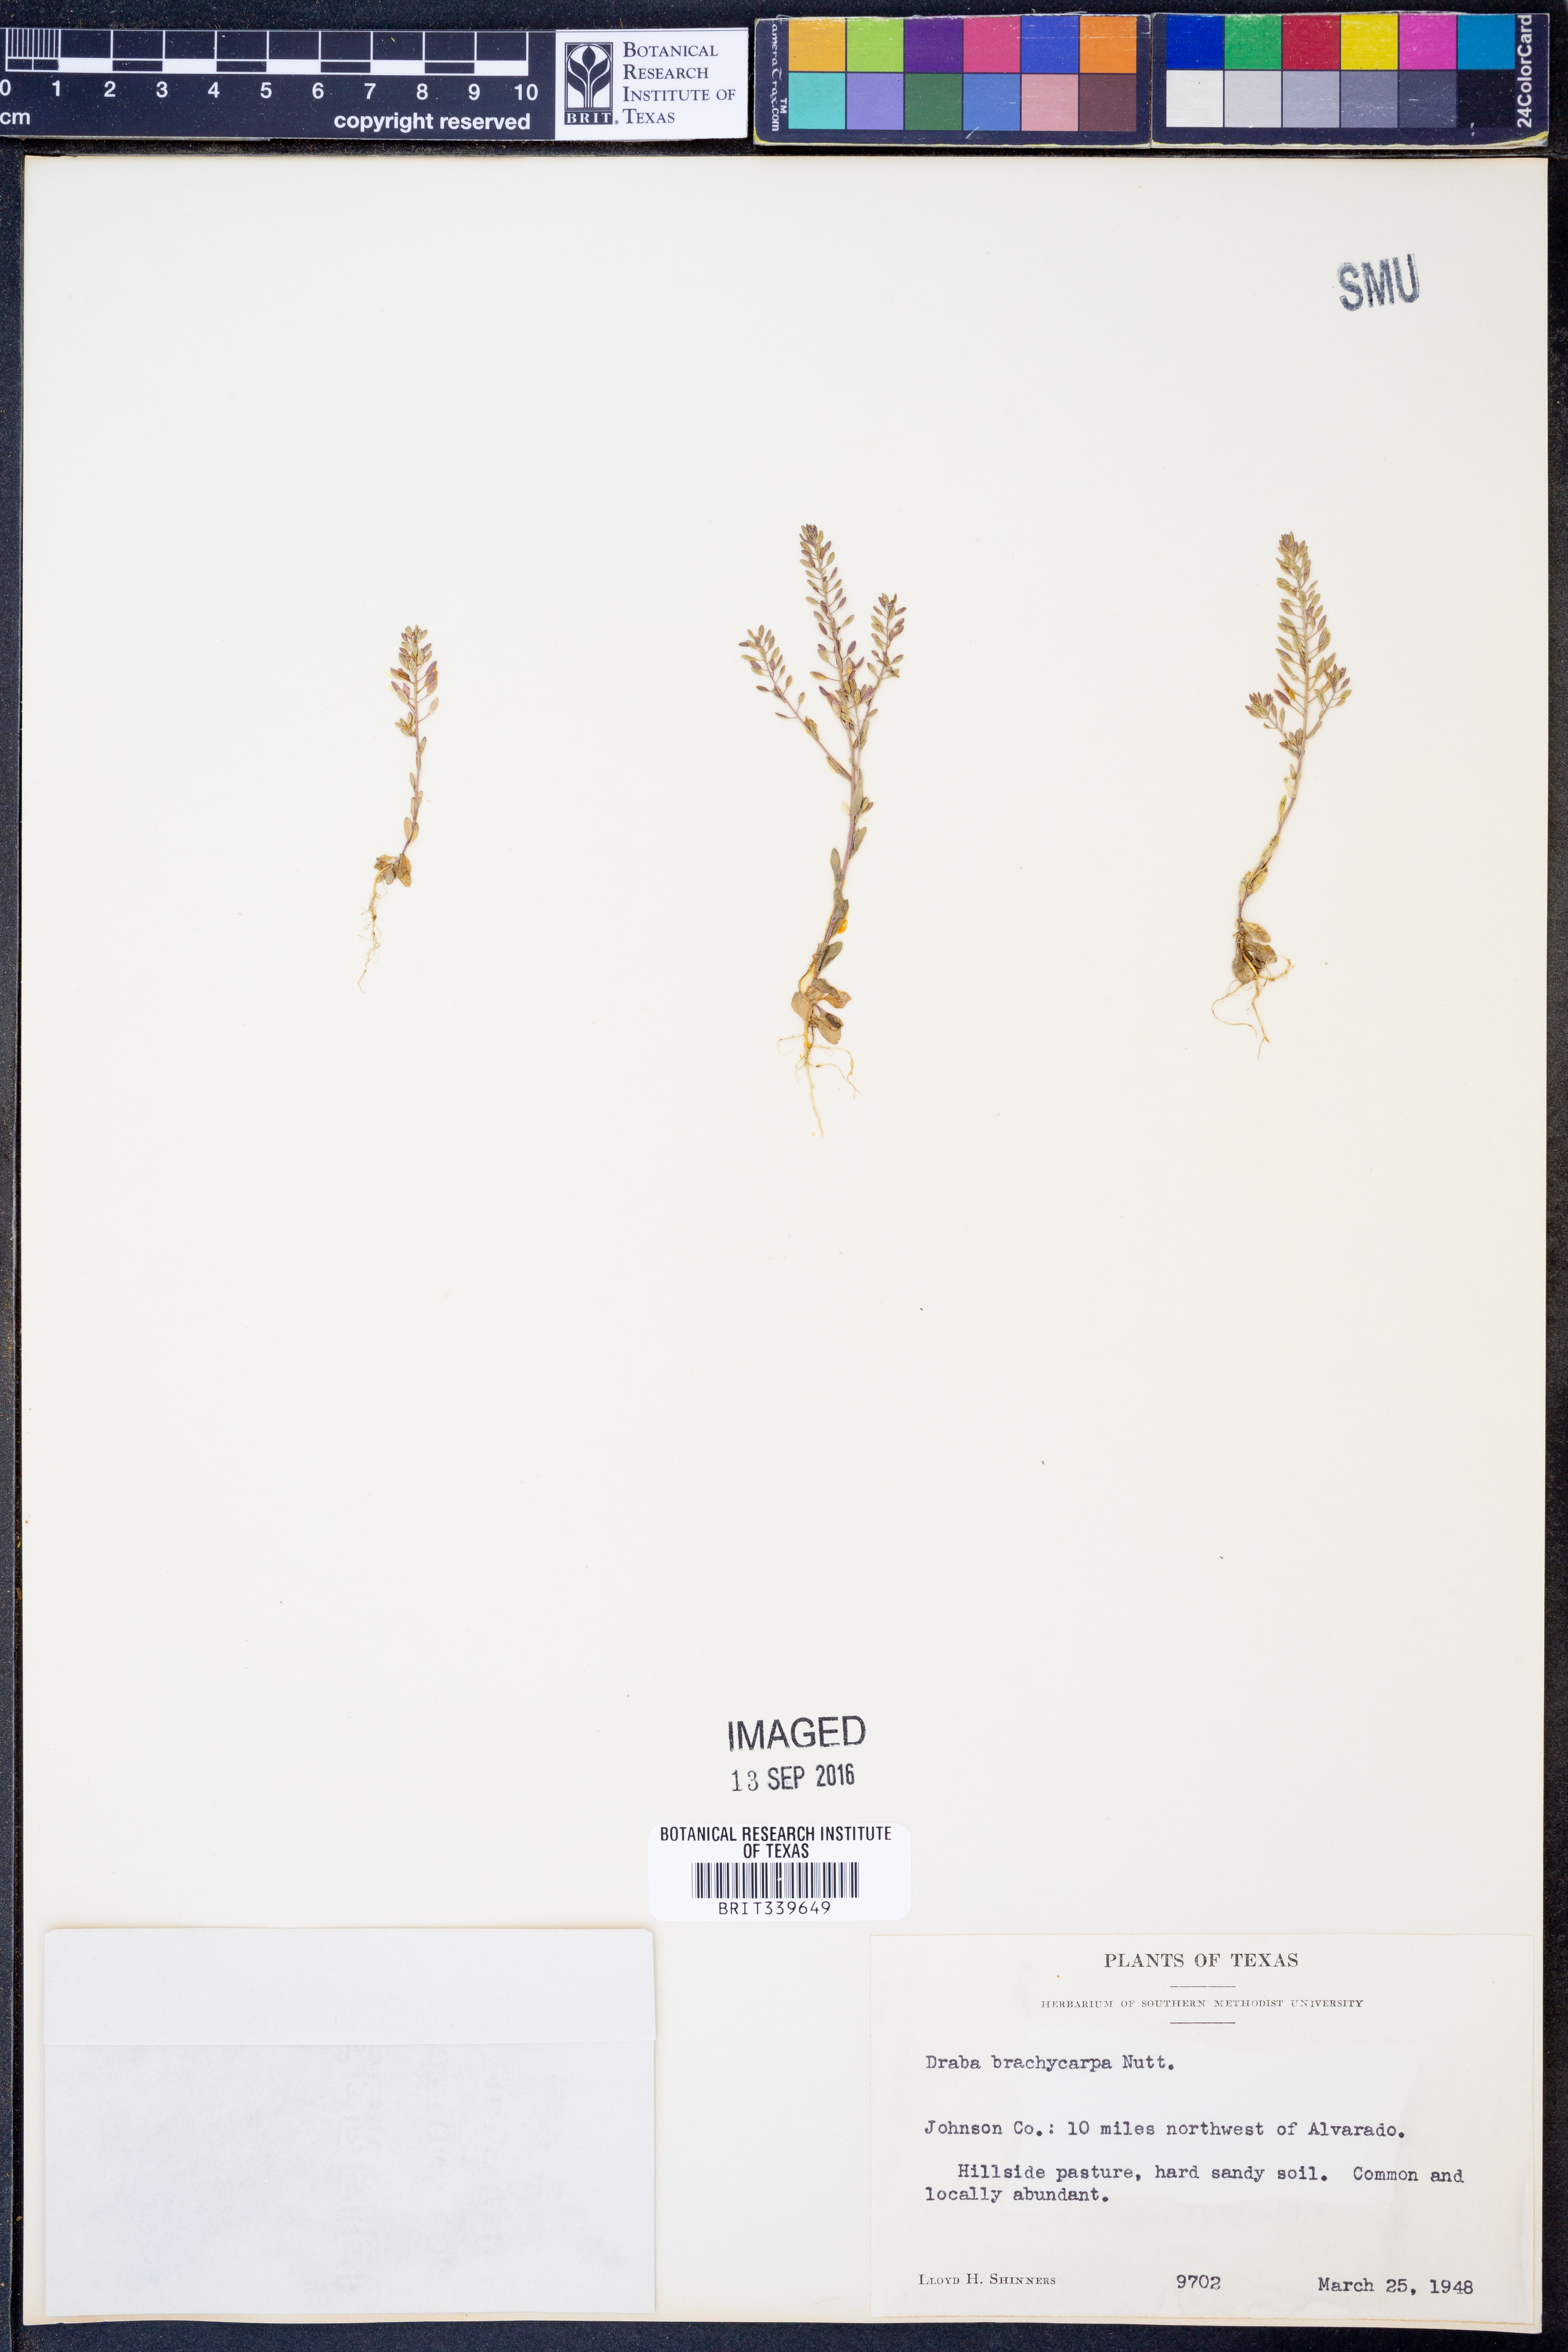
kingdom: Plantae
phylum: Tracheophyta
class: Magnoliopsida
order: Brassicales
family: Brassicaceae
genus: Abdra
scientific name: Abdra brachycarpa
